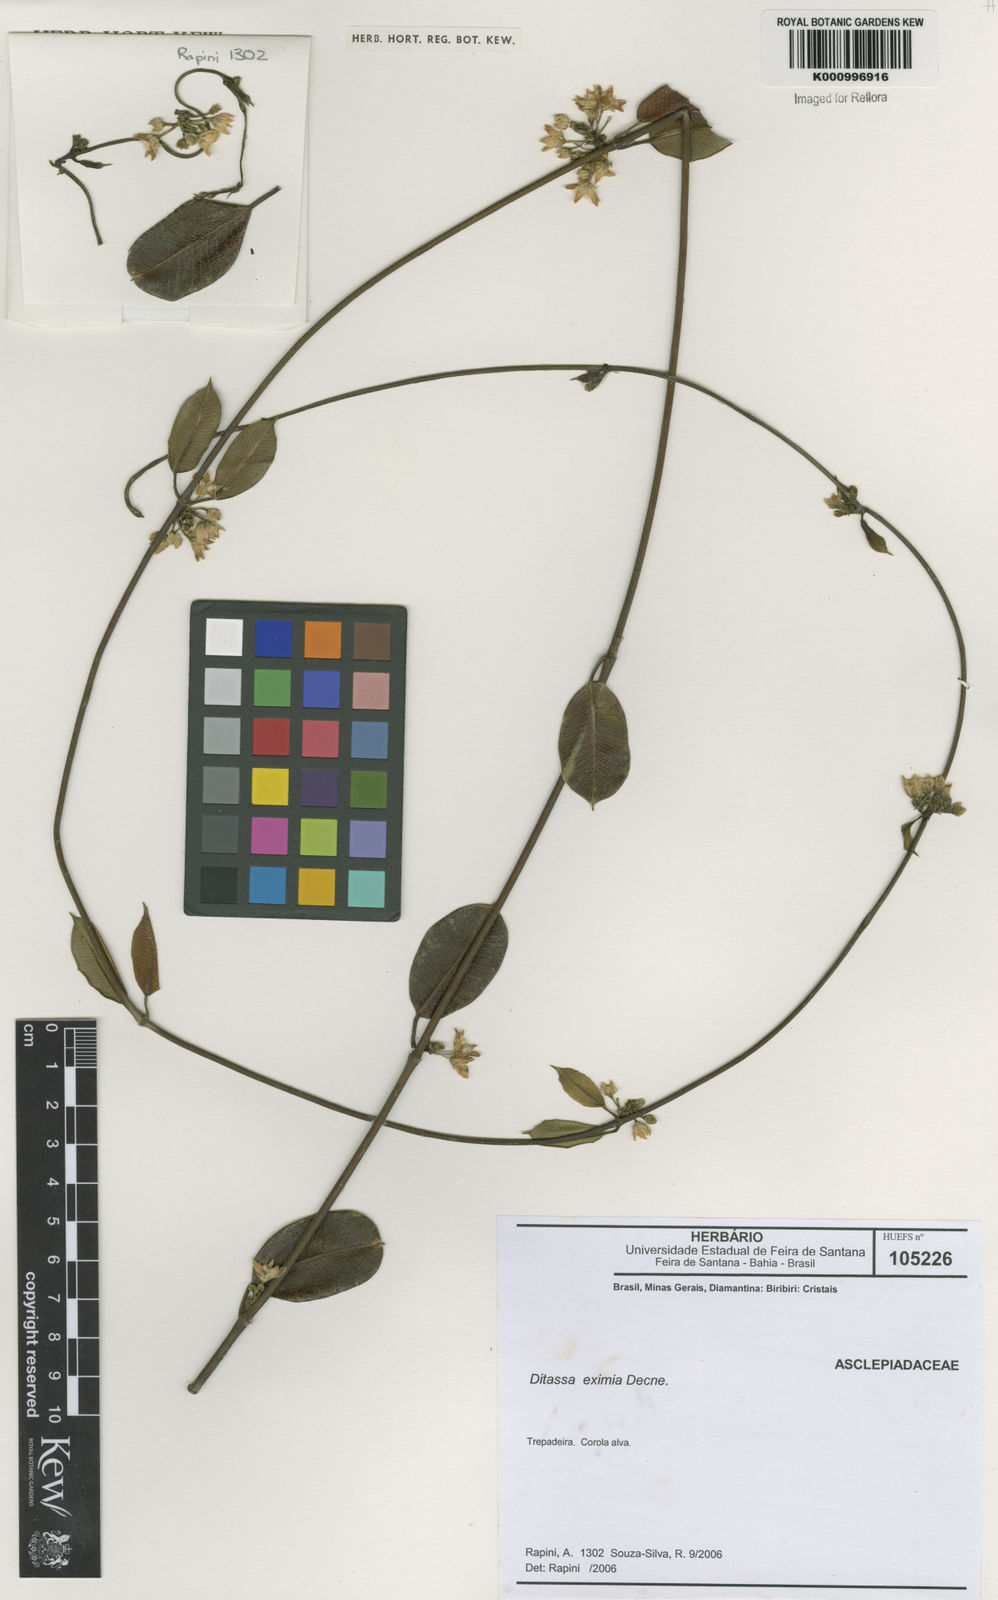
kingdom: Plantae
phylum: Tracheophyta
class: Magnoliopsida
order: Gentianales
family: Apocynaceae
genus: Ditassa
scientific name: Ditassa eximia
